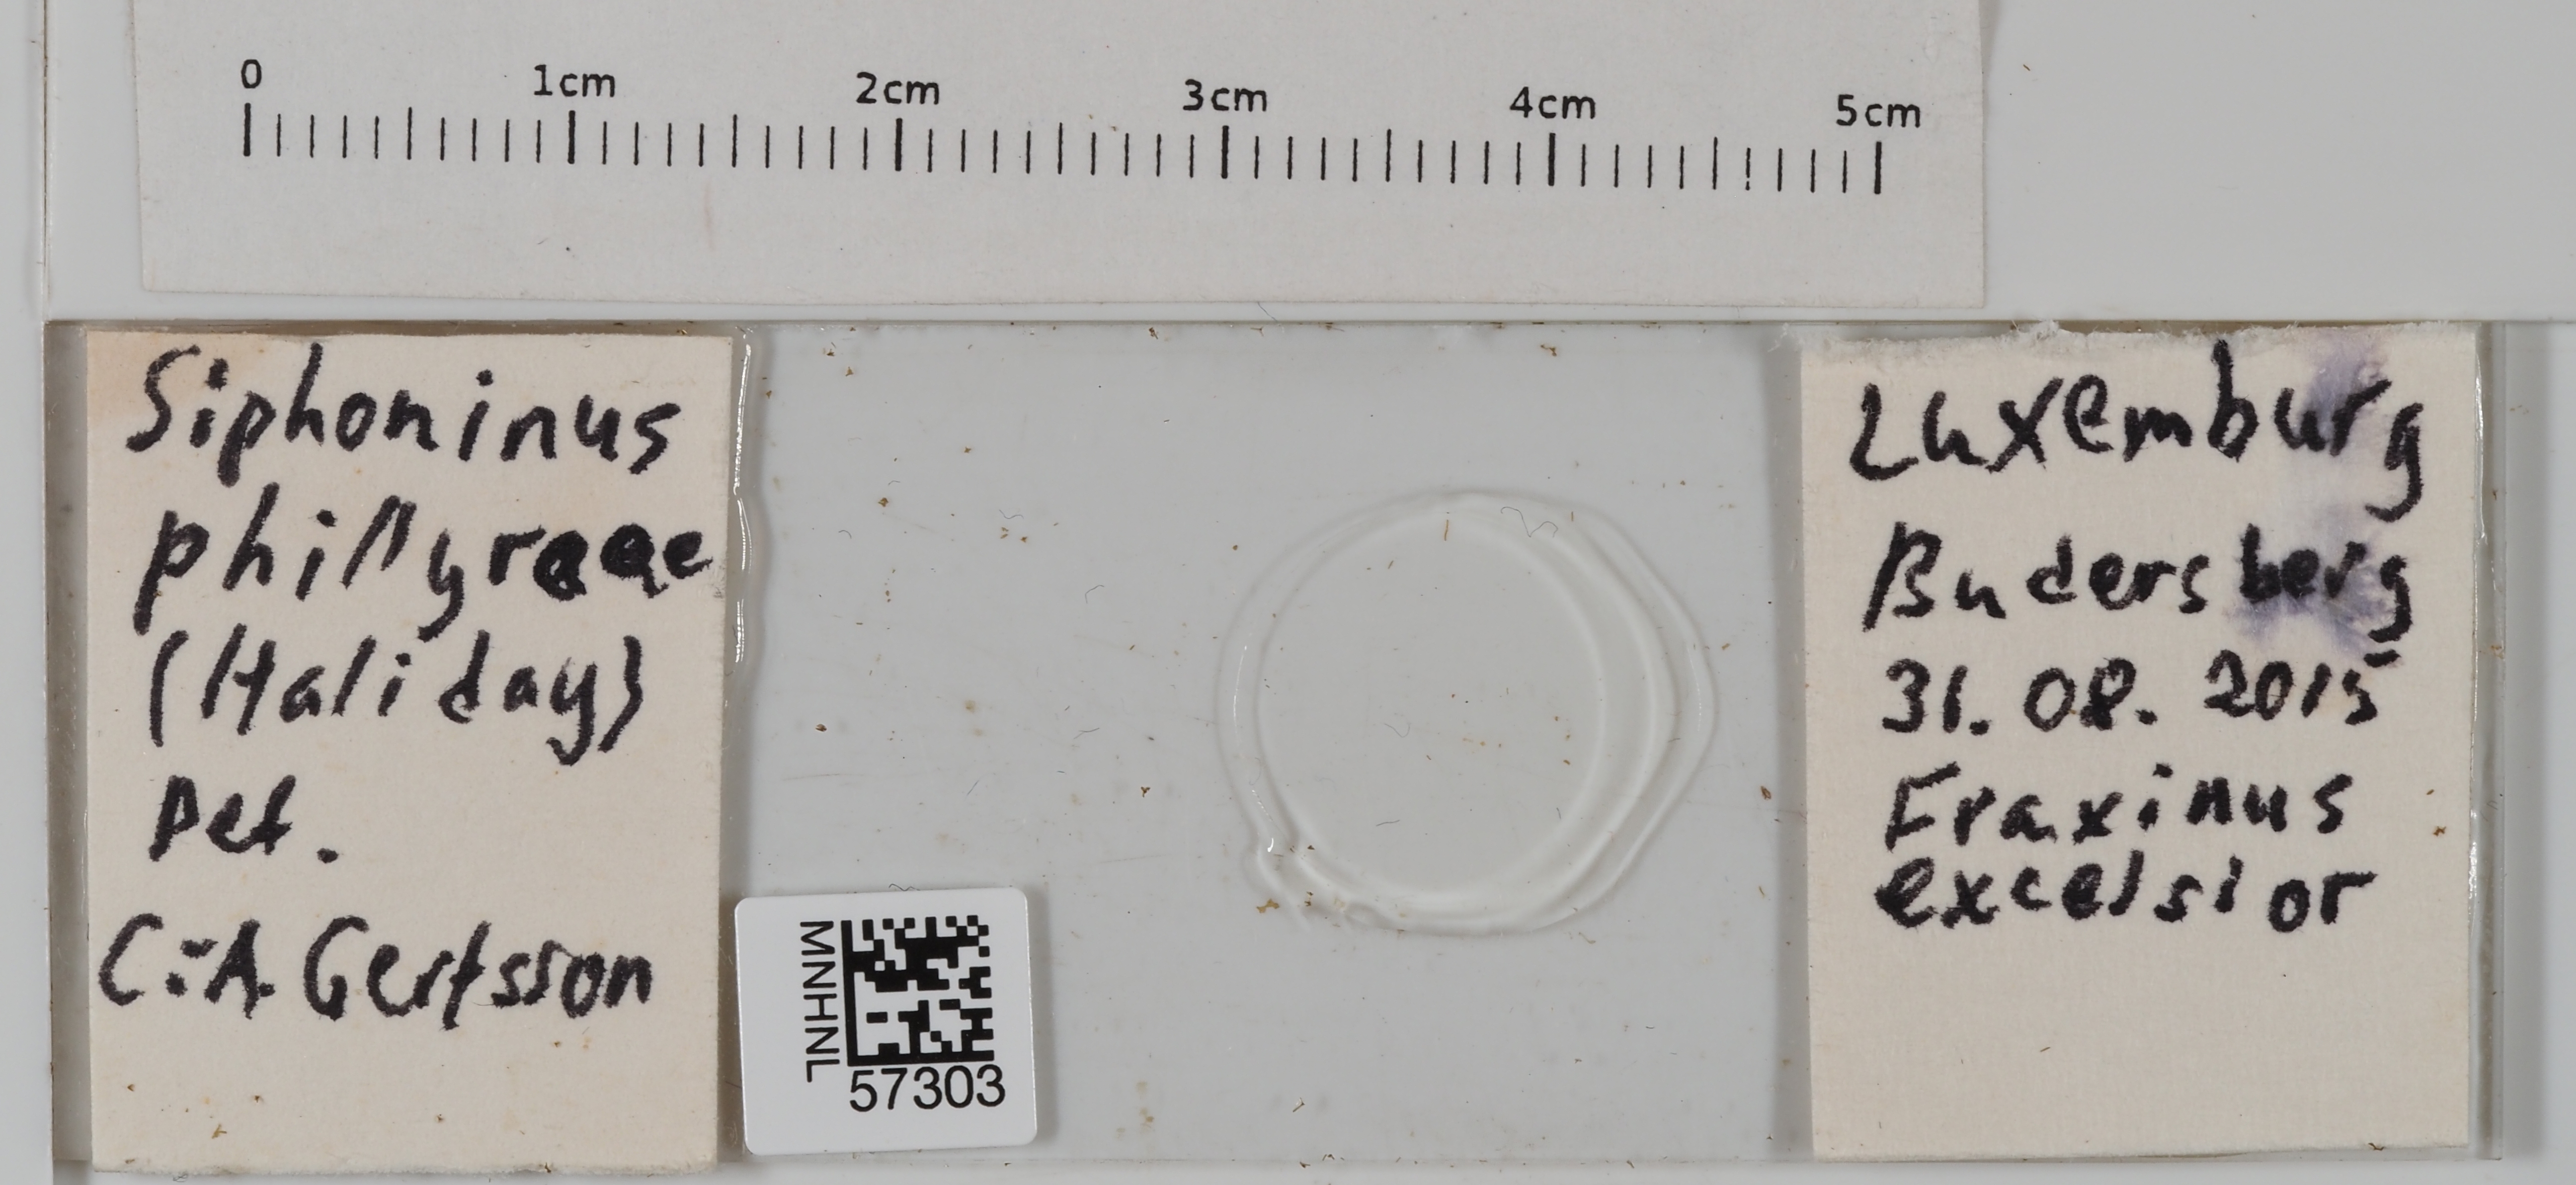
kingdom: Animalia
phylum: Arthropoda
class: Insecta
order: Hemiptera
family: Aleyrodidae
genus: Siphoninus
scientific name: Siphoninus phillyreae
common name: Ash whitefly
